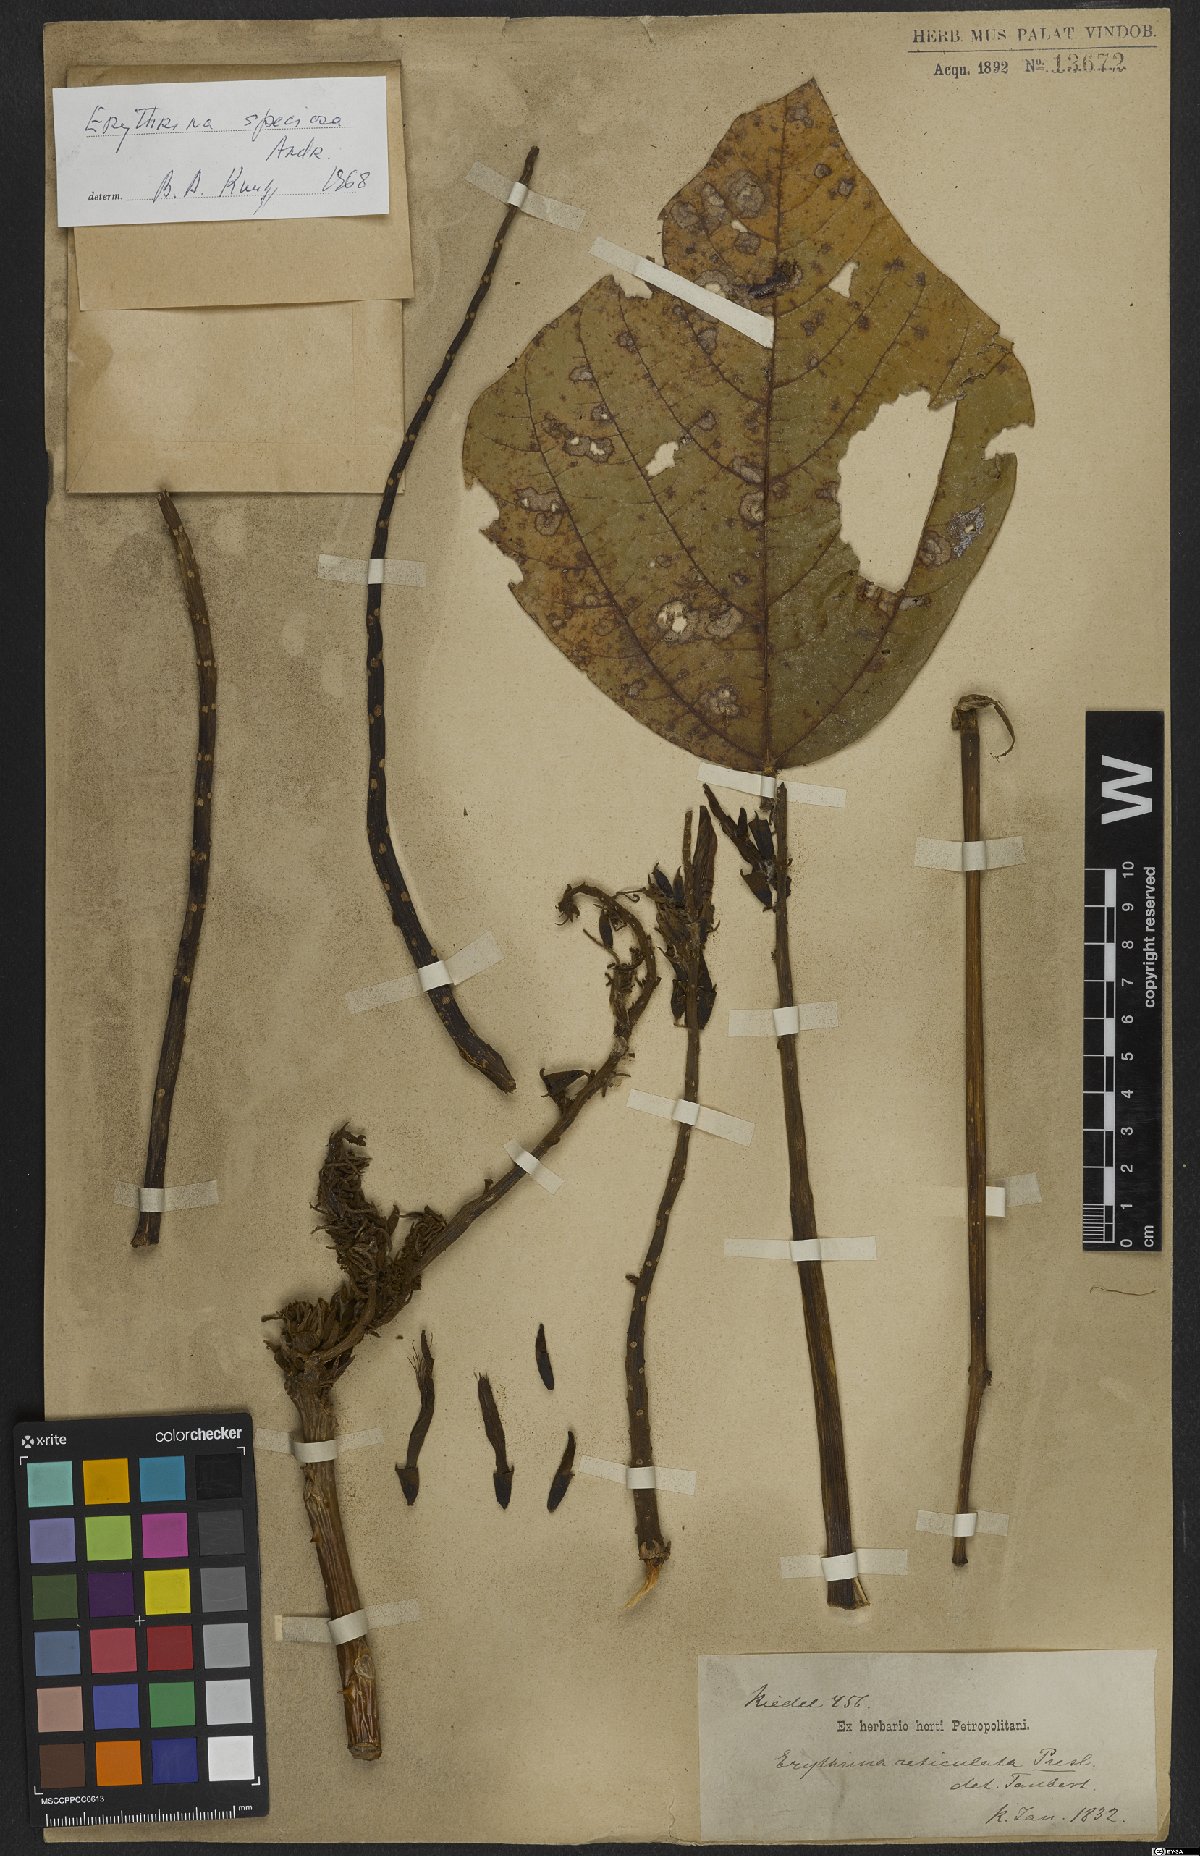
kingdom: Plantae
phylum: Tracheophyta
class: Magnoliopsida
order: Fabales
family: Fabaceae
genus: Erythrina
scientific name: Erythrina speciosa
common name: Coral tree
